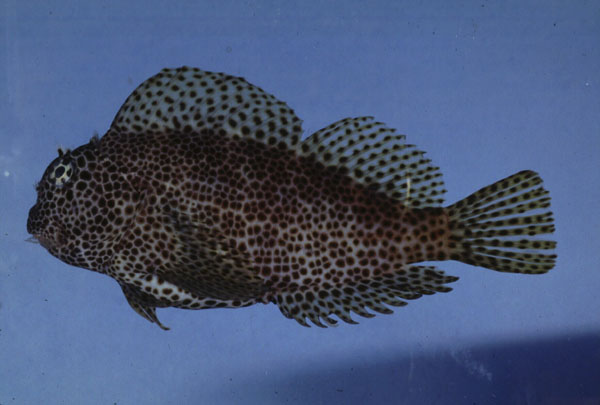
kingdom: Animalia
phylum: Chordata
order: Perciformes
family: Blenniidae
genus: Exallias
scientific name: Exallias brevis
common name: Leopard blenny
